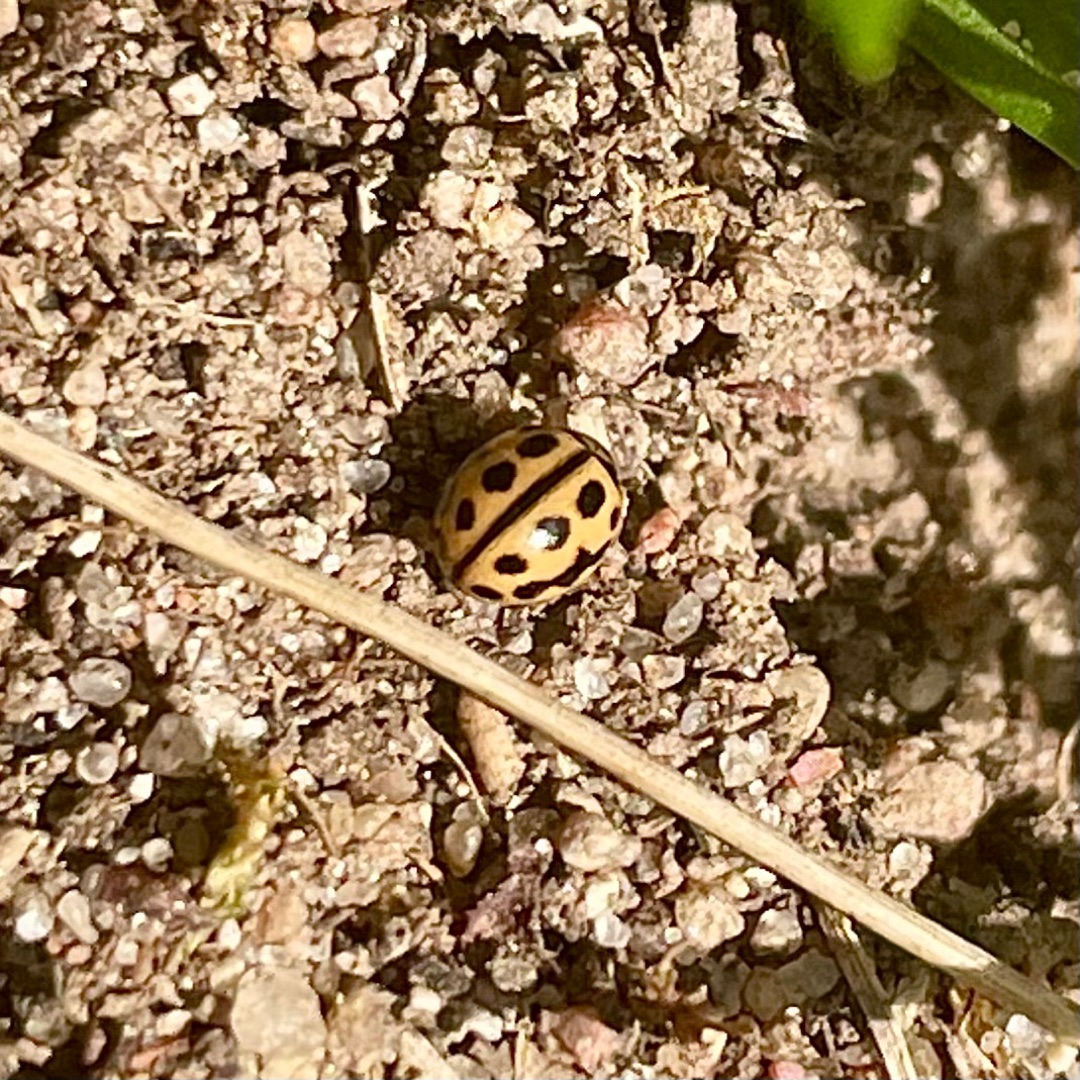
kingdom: Animalia
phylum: Arthropoda
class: Insecta
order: Coleoptera
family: Coccinellidae
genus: Tytthaspis
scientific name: Tytthaspis sedecimpunctata
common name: Sekstenprikket mariehøne
